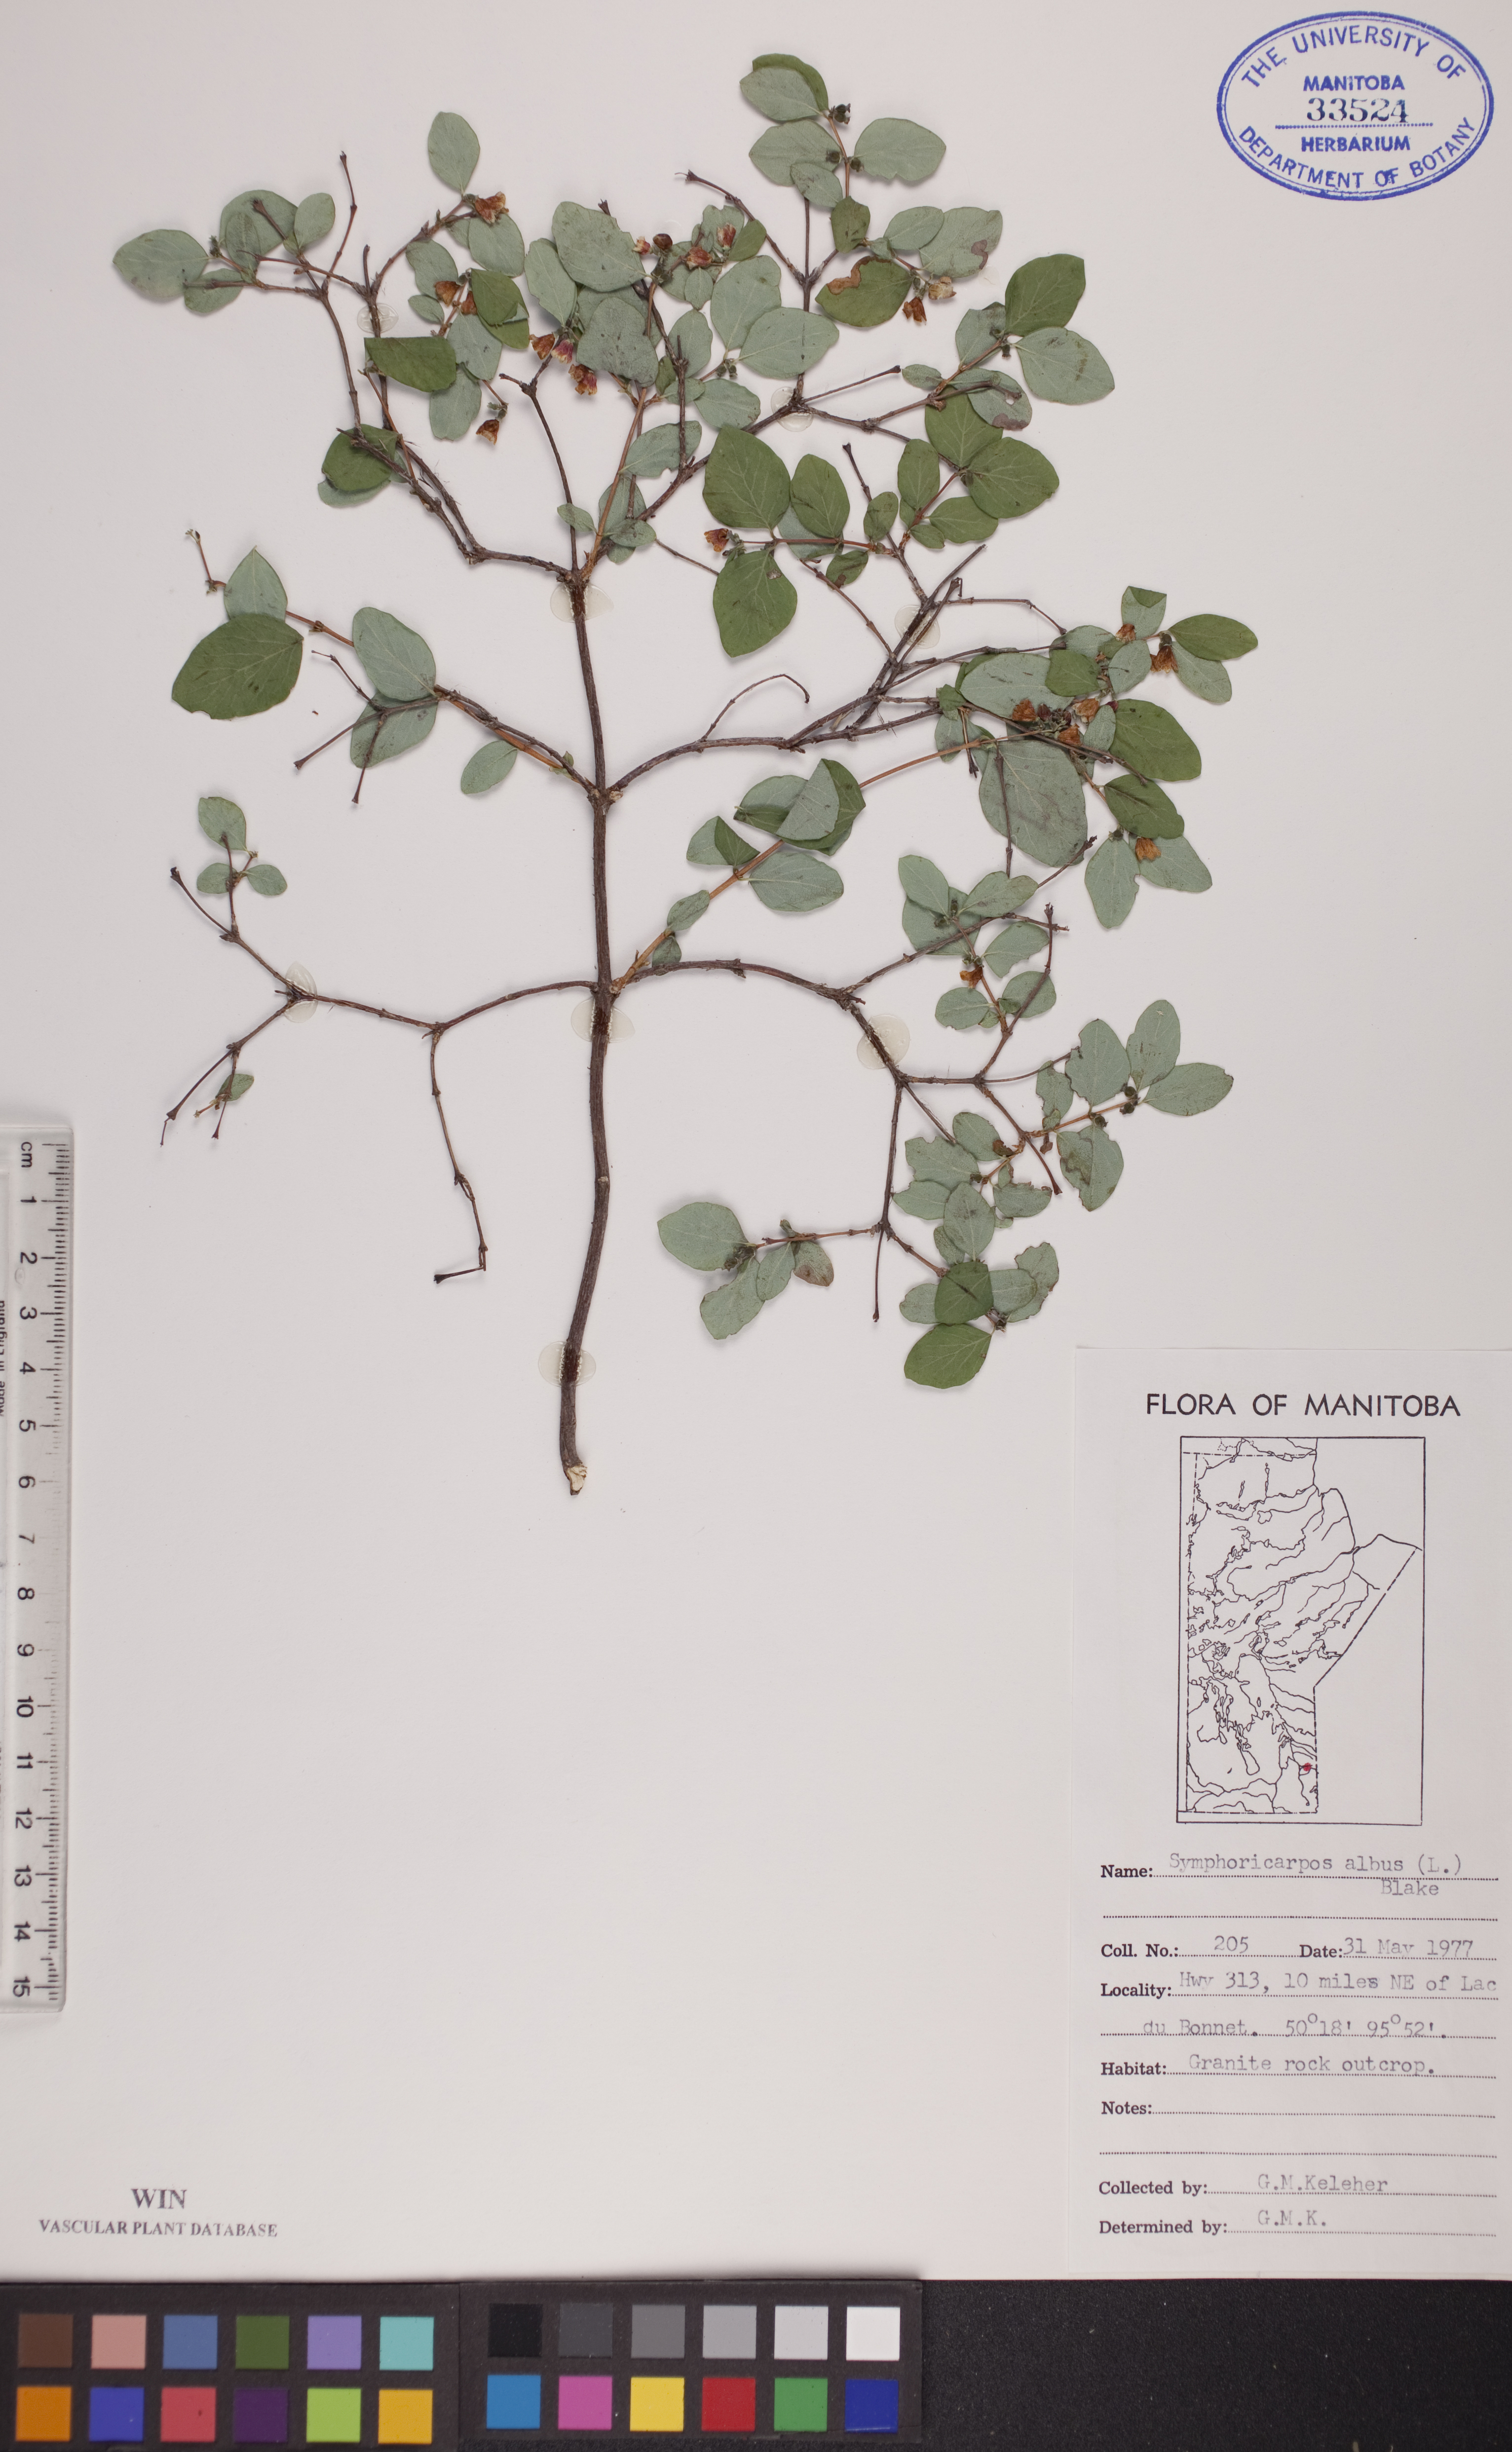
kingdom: Plantae
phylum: Tracheophyta
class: Magnoliopsida
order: Dipsacales
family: Caprifoliaceae
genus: Symphoricarpos
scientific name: Symphoricarpos albus
